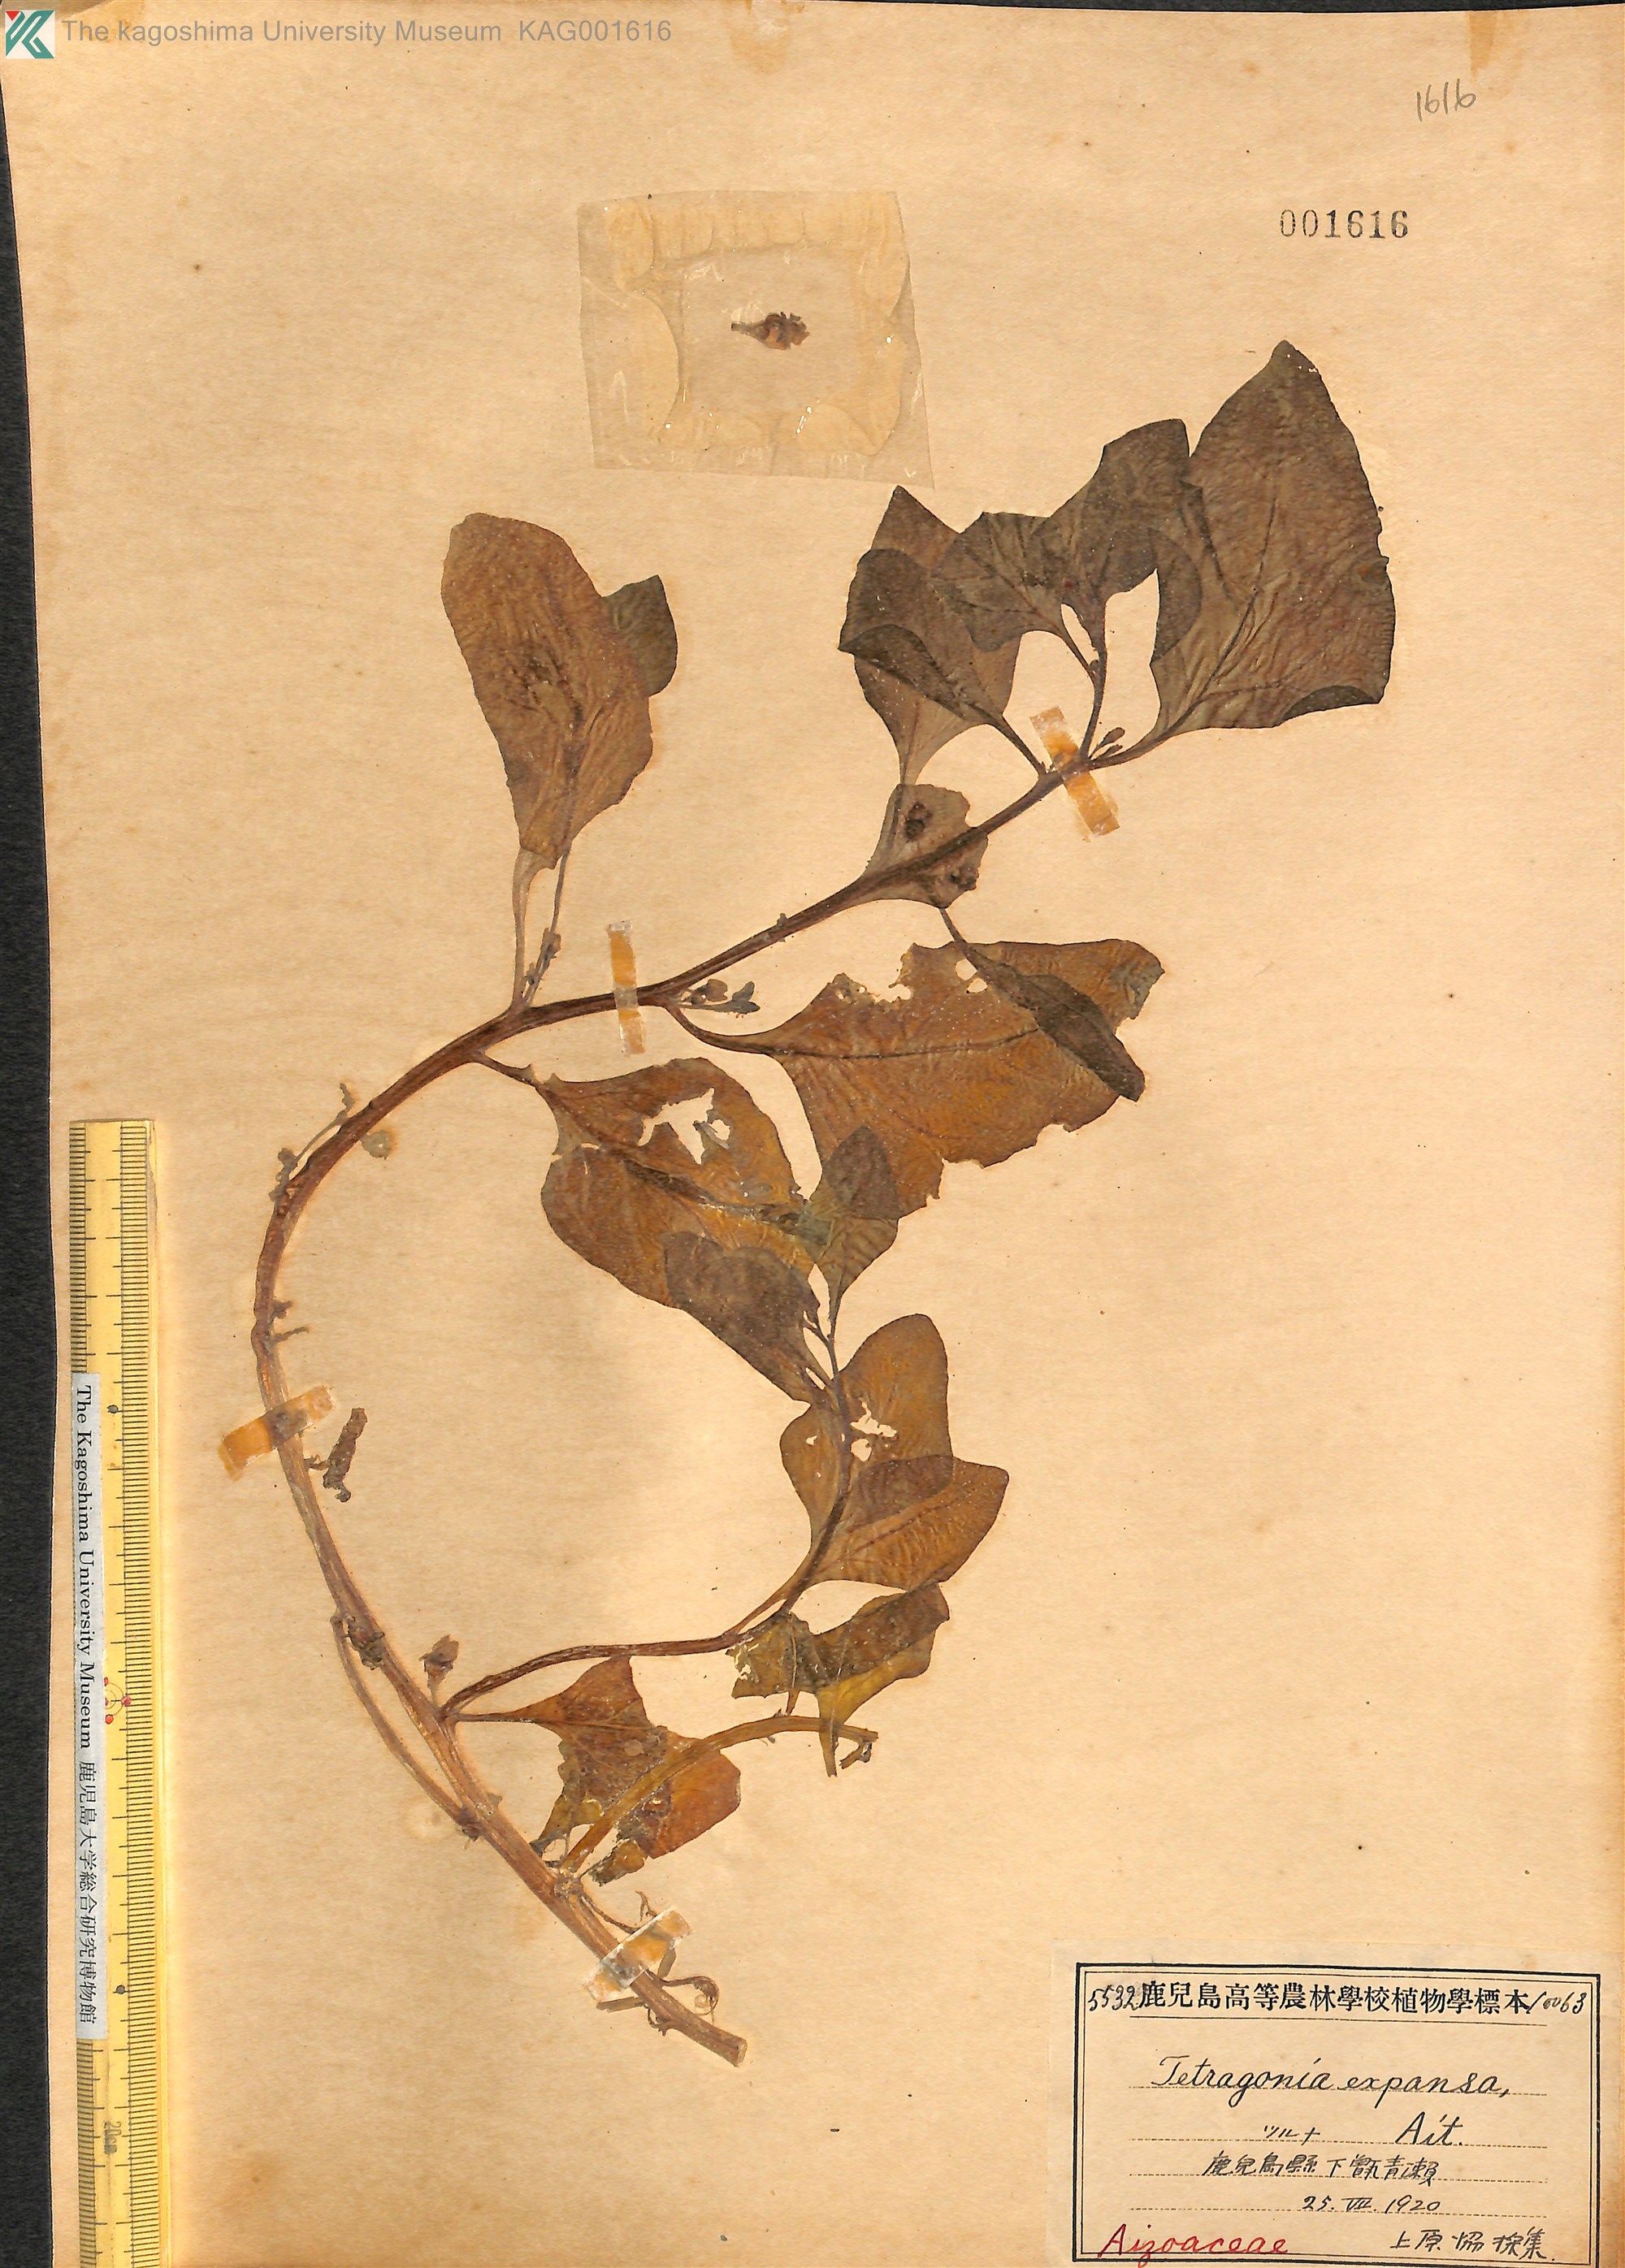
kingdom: Plantae
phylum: Tracheophyta
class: Magnoliopsida
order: Caryophyllales
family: Aizoaceae
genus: Tetragonia
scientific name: Tetragonia tetragonoides
